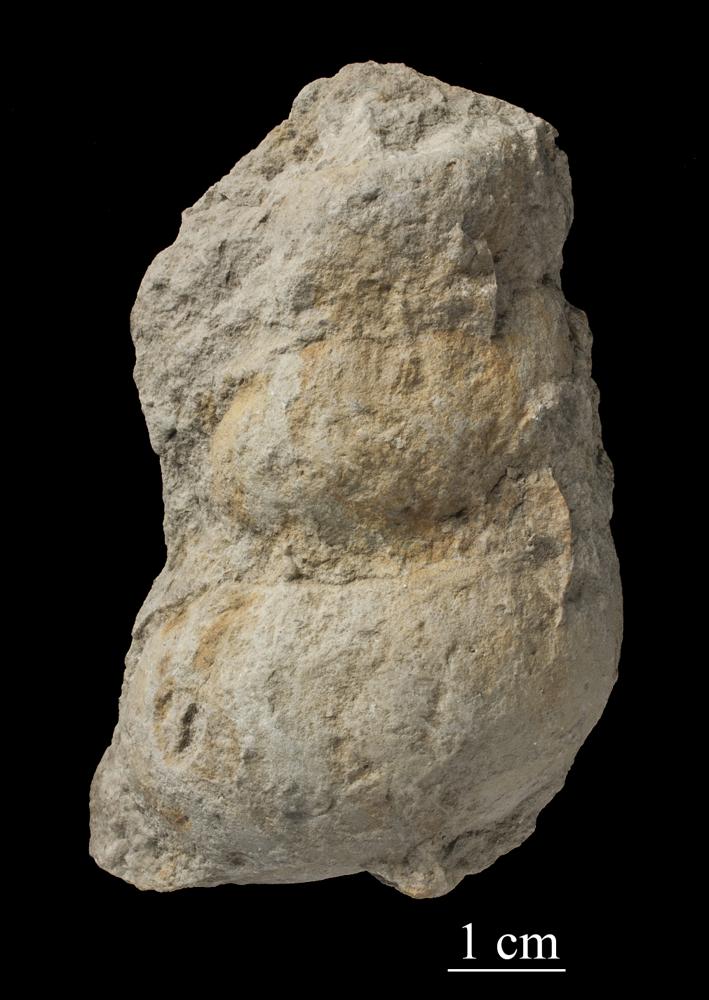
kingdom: Animalia
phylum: Mollusca
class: Gastropoda
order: Pleurotomariida
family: Murchisoniidae
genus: Murchisonia
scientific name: Murchisonia insignis
